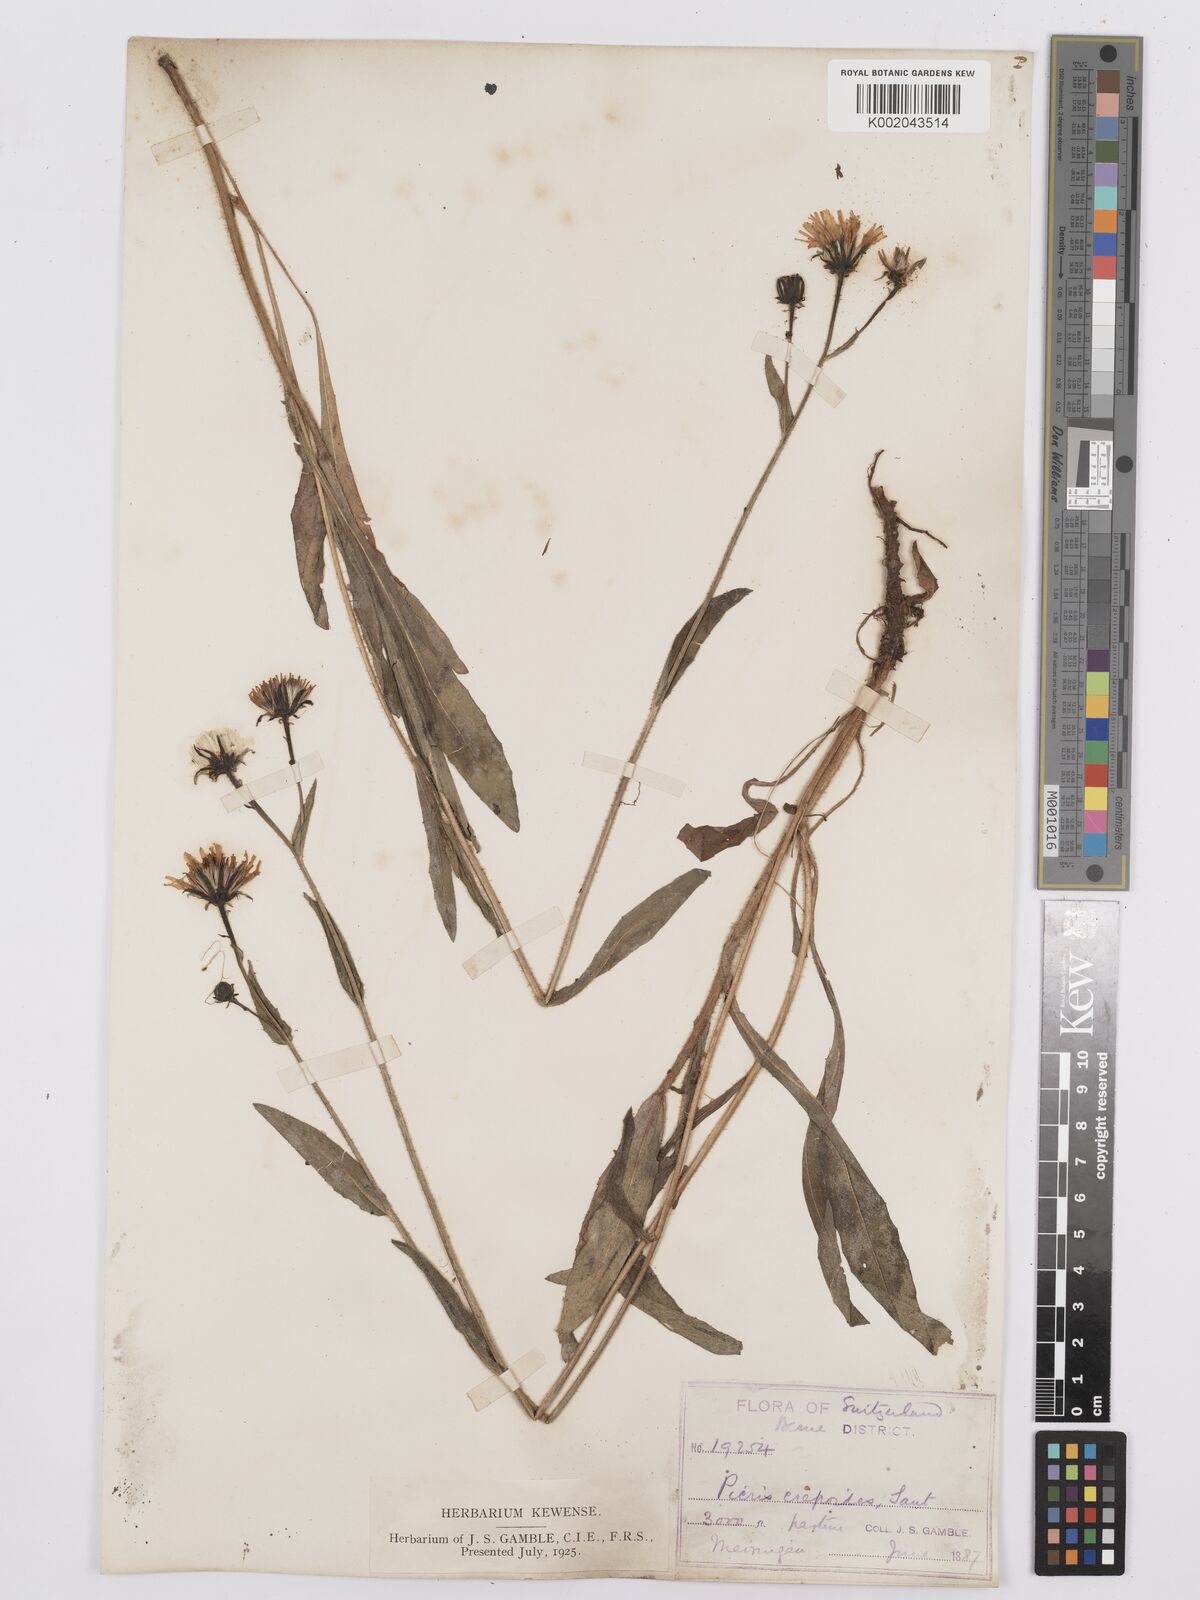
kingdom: Plantae
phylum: Tracheophyta
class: Magnoliopsida
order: Asterales
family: Asteraceae
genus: Picris
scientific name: Picris hieracioides
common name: Hawkweed oxtongue
